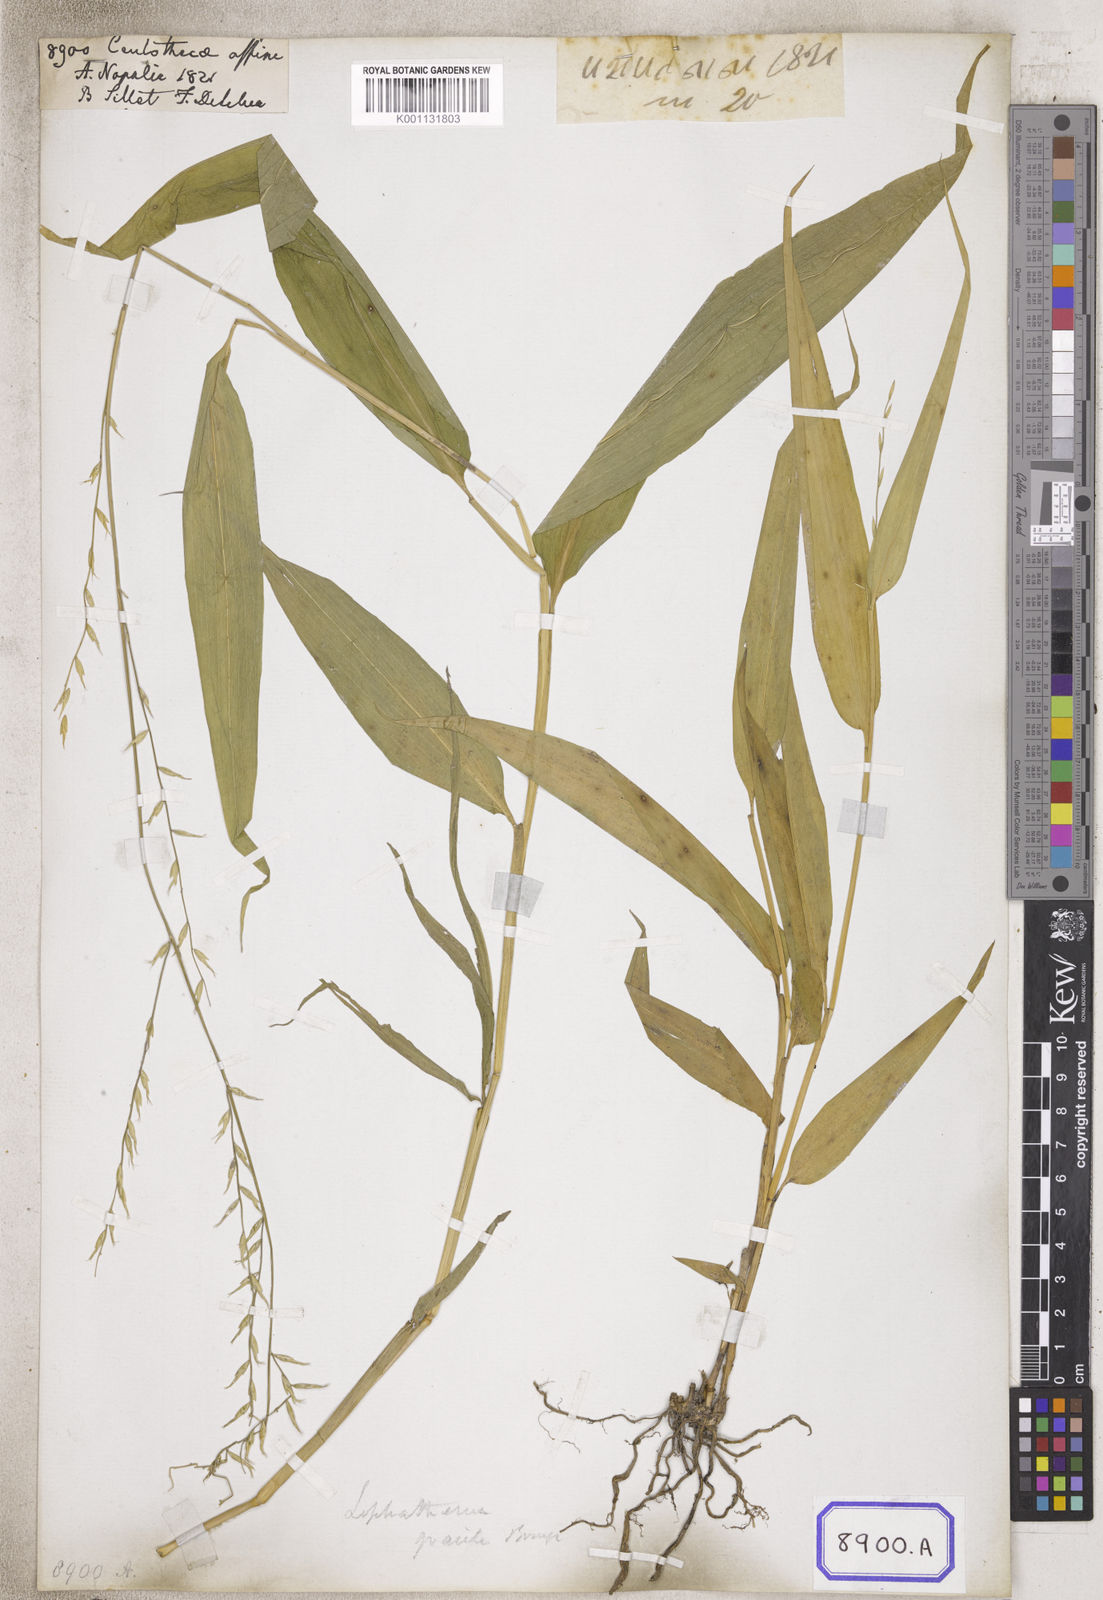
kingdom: Plantae
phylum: Tracheophyta
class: Liliopsida
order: Poales
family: Poaceae
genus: Centotheca
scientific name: Centotheca
